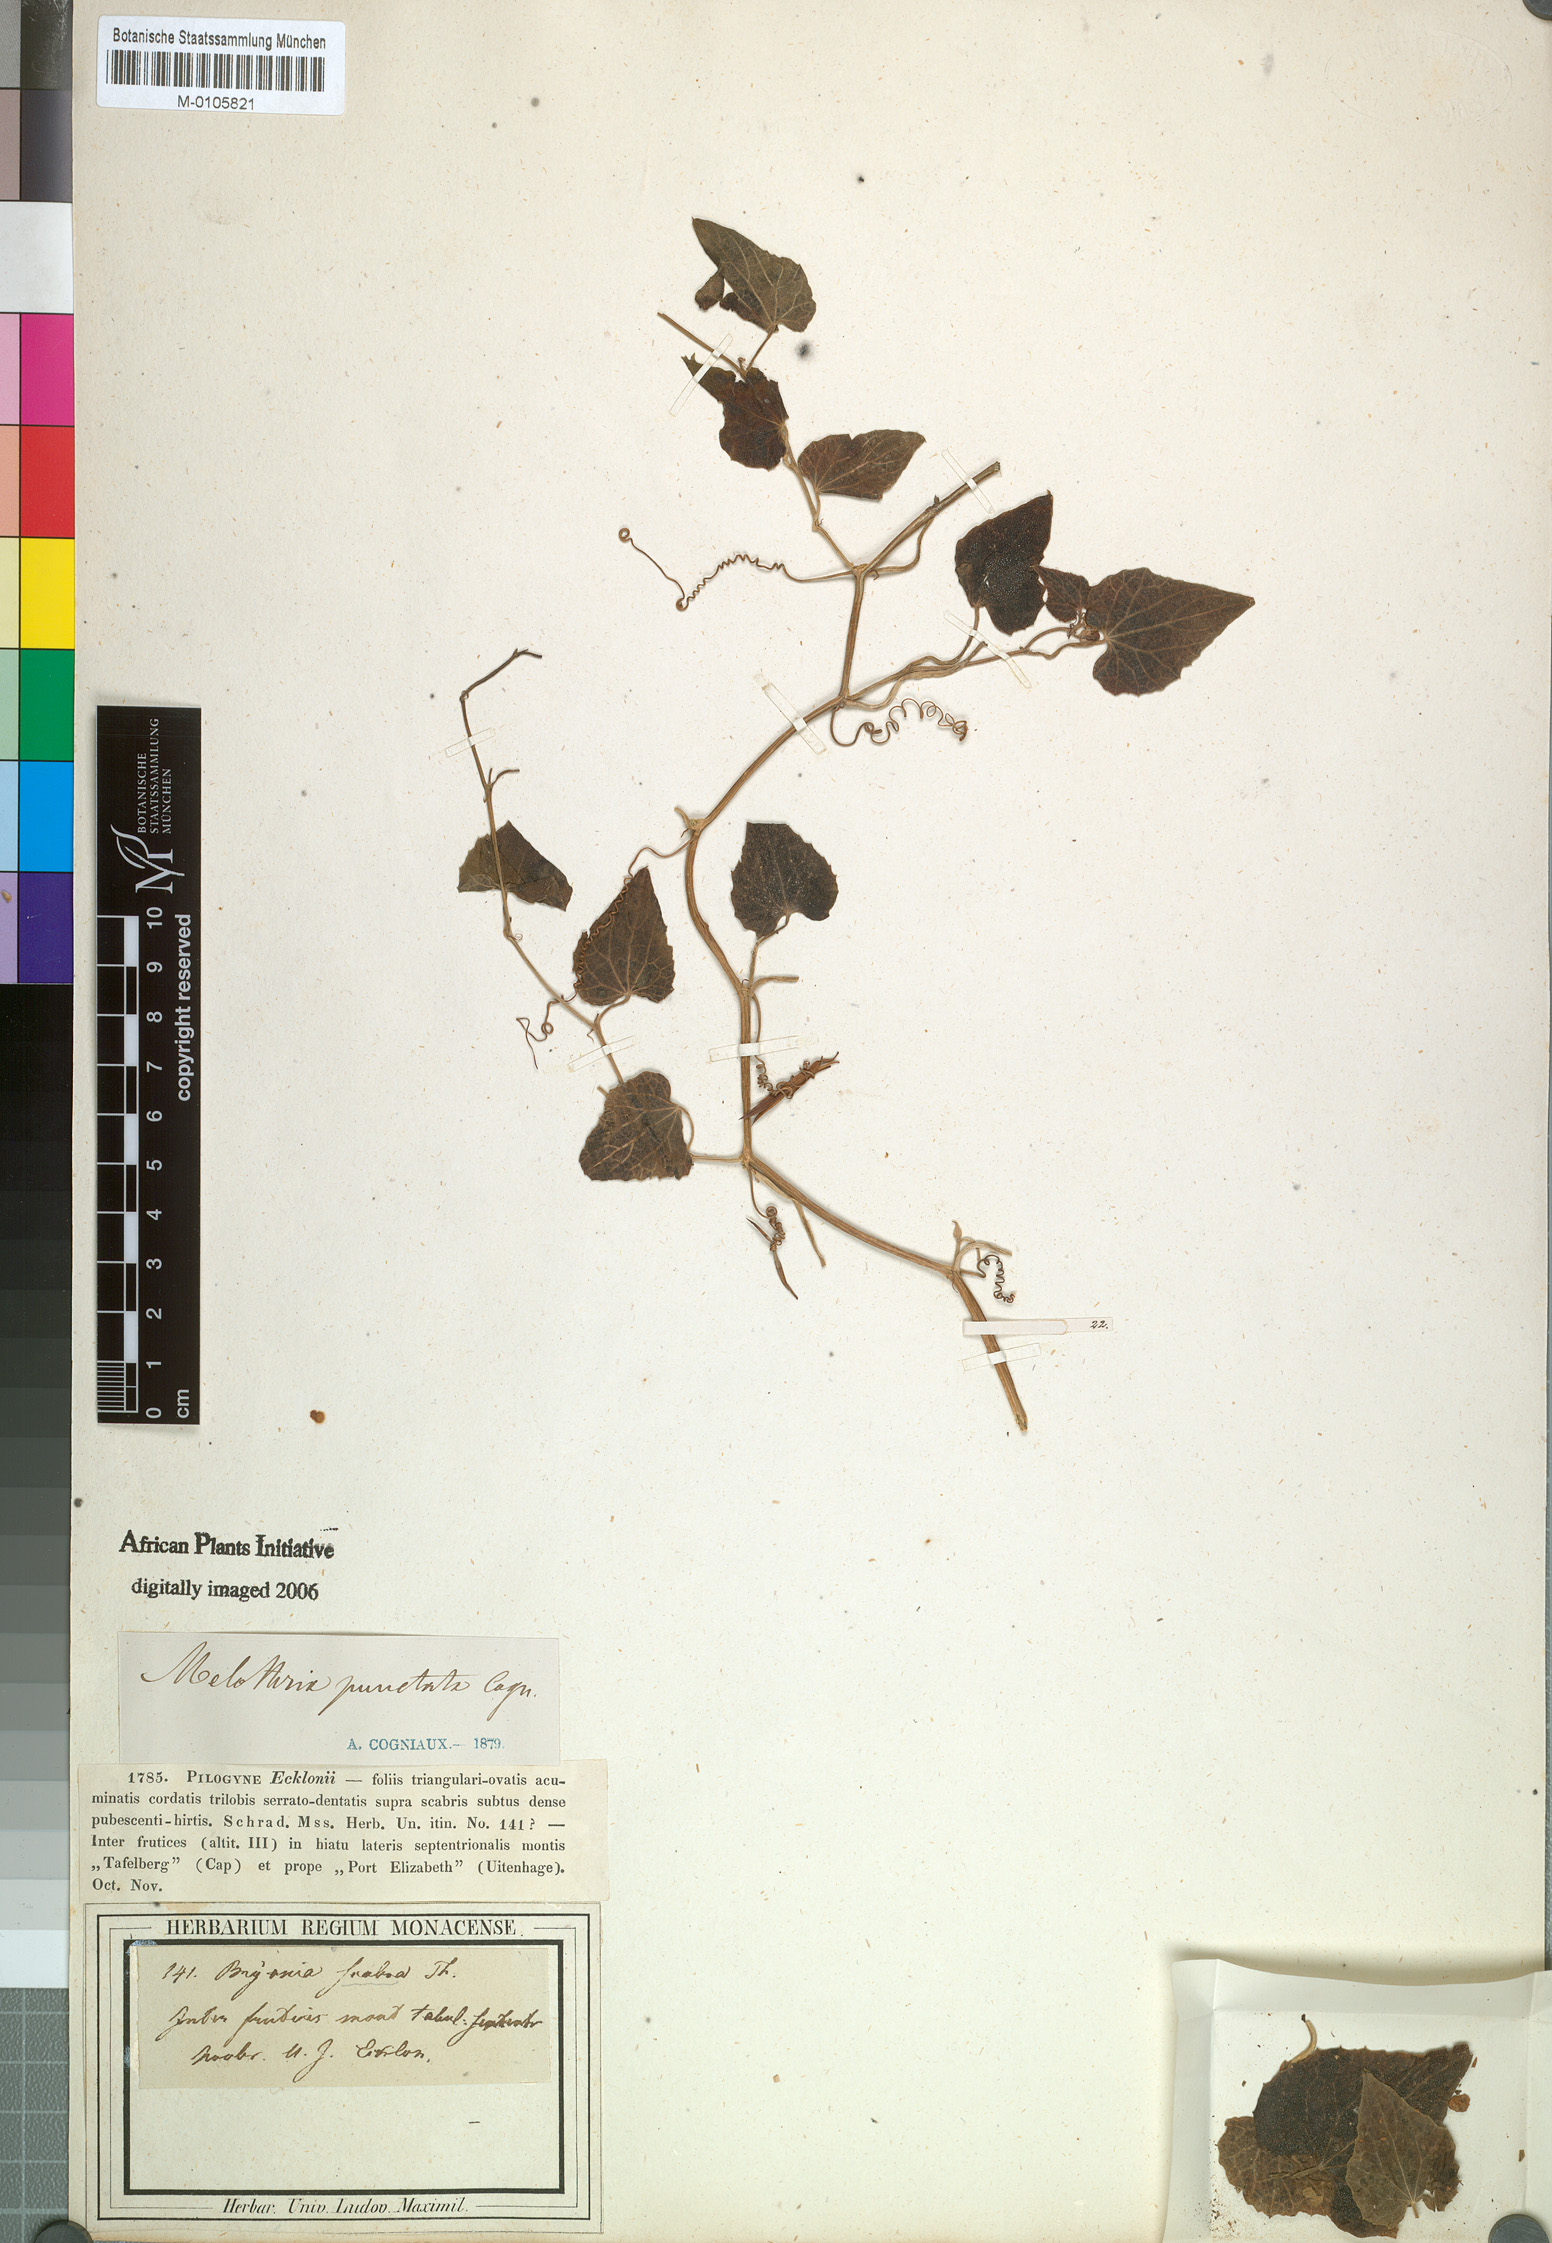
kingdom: Plantae
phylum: Tracheophyta
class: Magnoliopsida
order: Cucurbitales
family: Cucurbitaceae
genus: Zehneria
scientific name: Zehneria scabra
